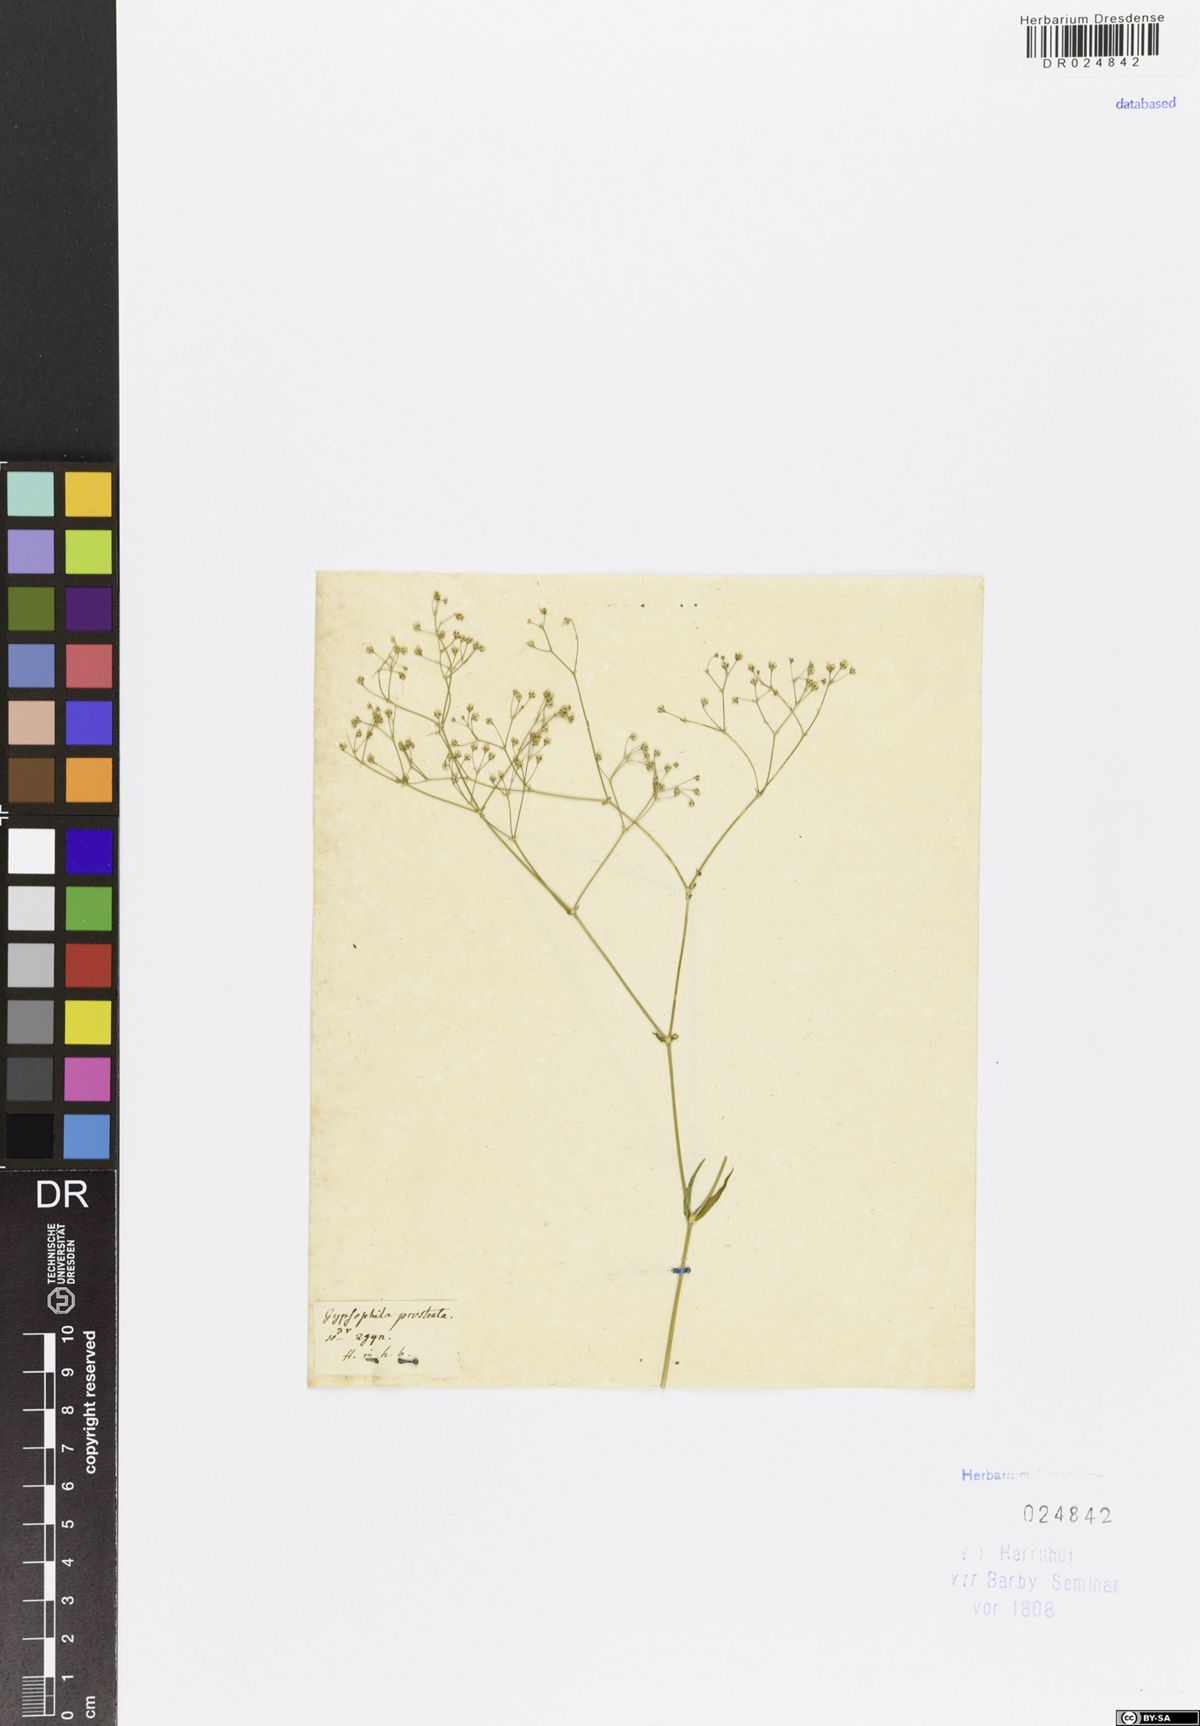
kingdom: Plantae
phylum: Tracheophyta
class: Magnoliopsida
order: Caryophyllales
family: Caryophyllaceae
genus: Gypsophila
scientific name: Gypsophila prostrata
